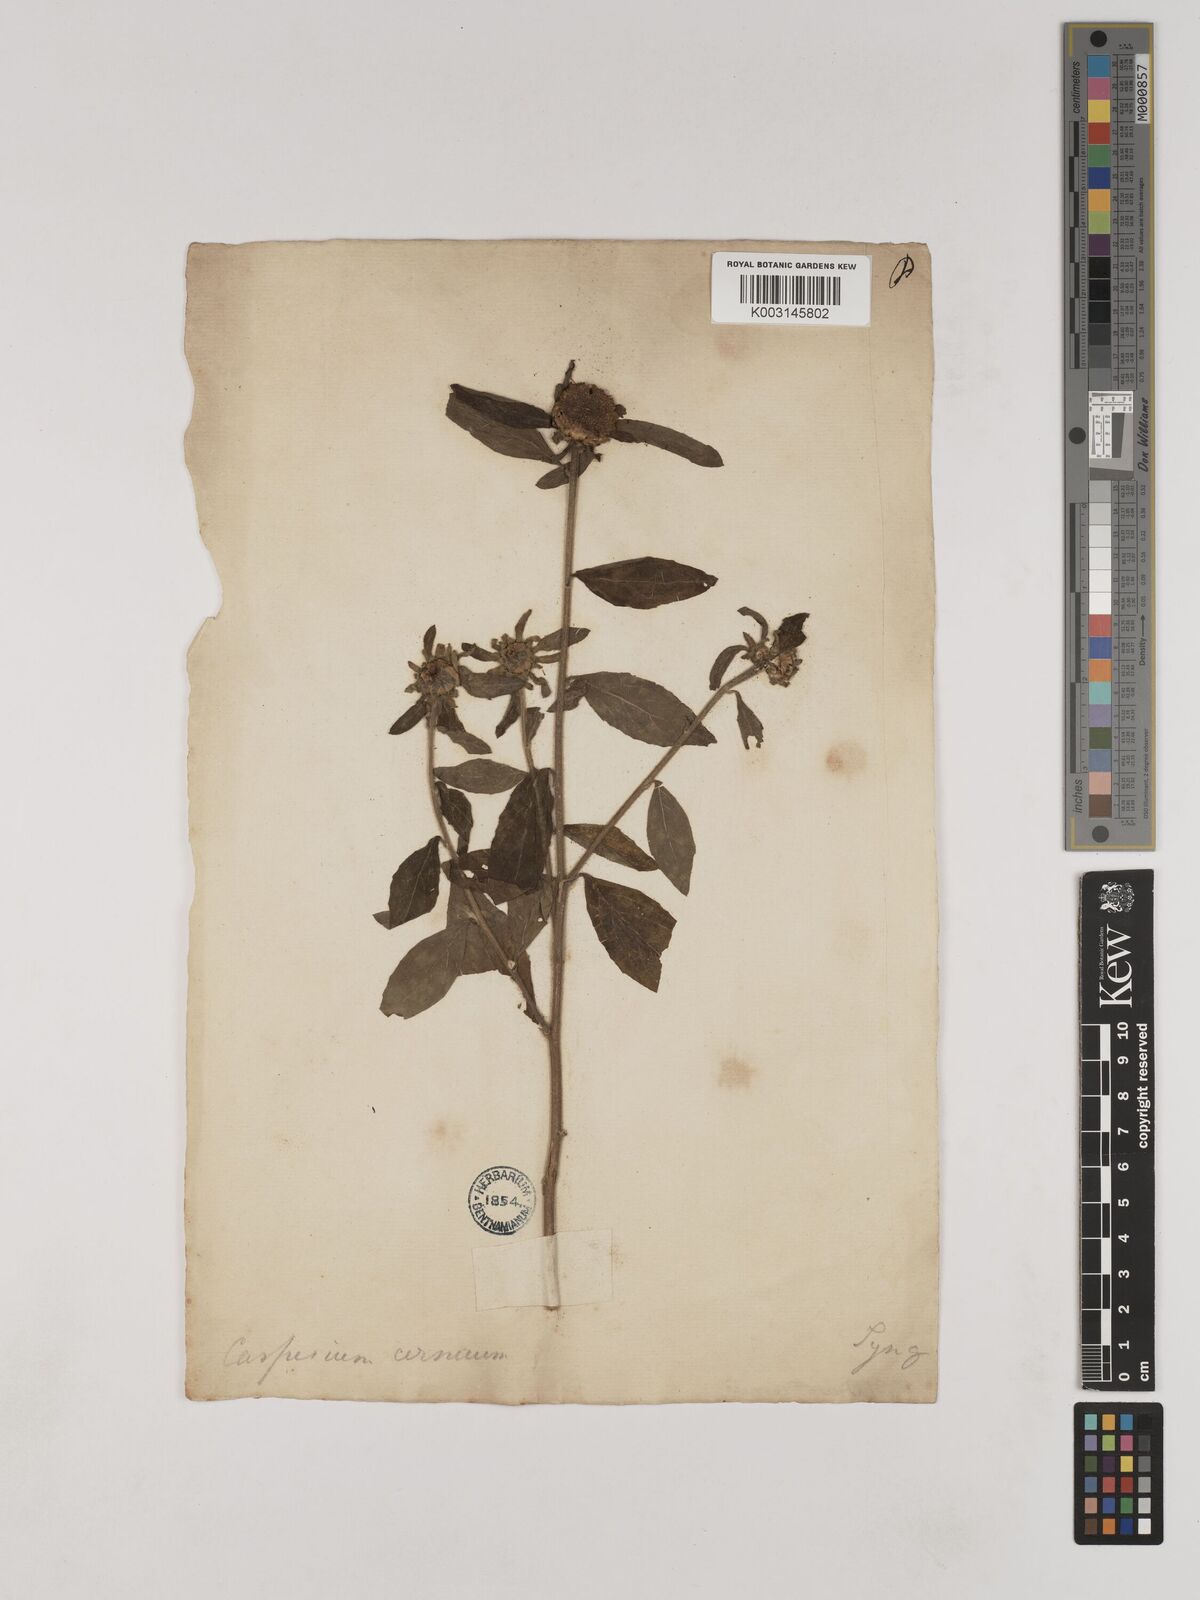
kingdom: Plantae
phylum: Tracheophyta
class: Magnoliopsida
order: Asterales
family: Asteraceae
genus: Carpesium
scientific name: Carpesium cernuum
